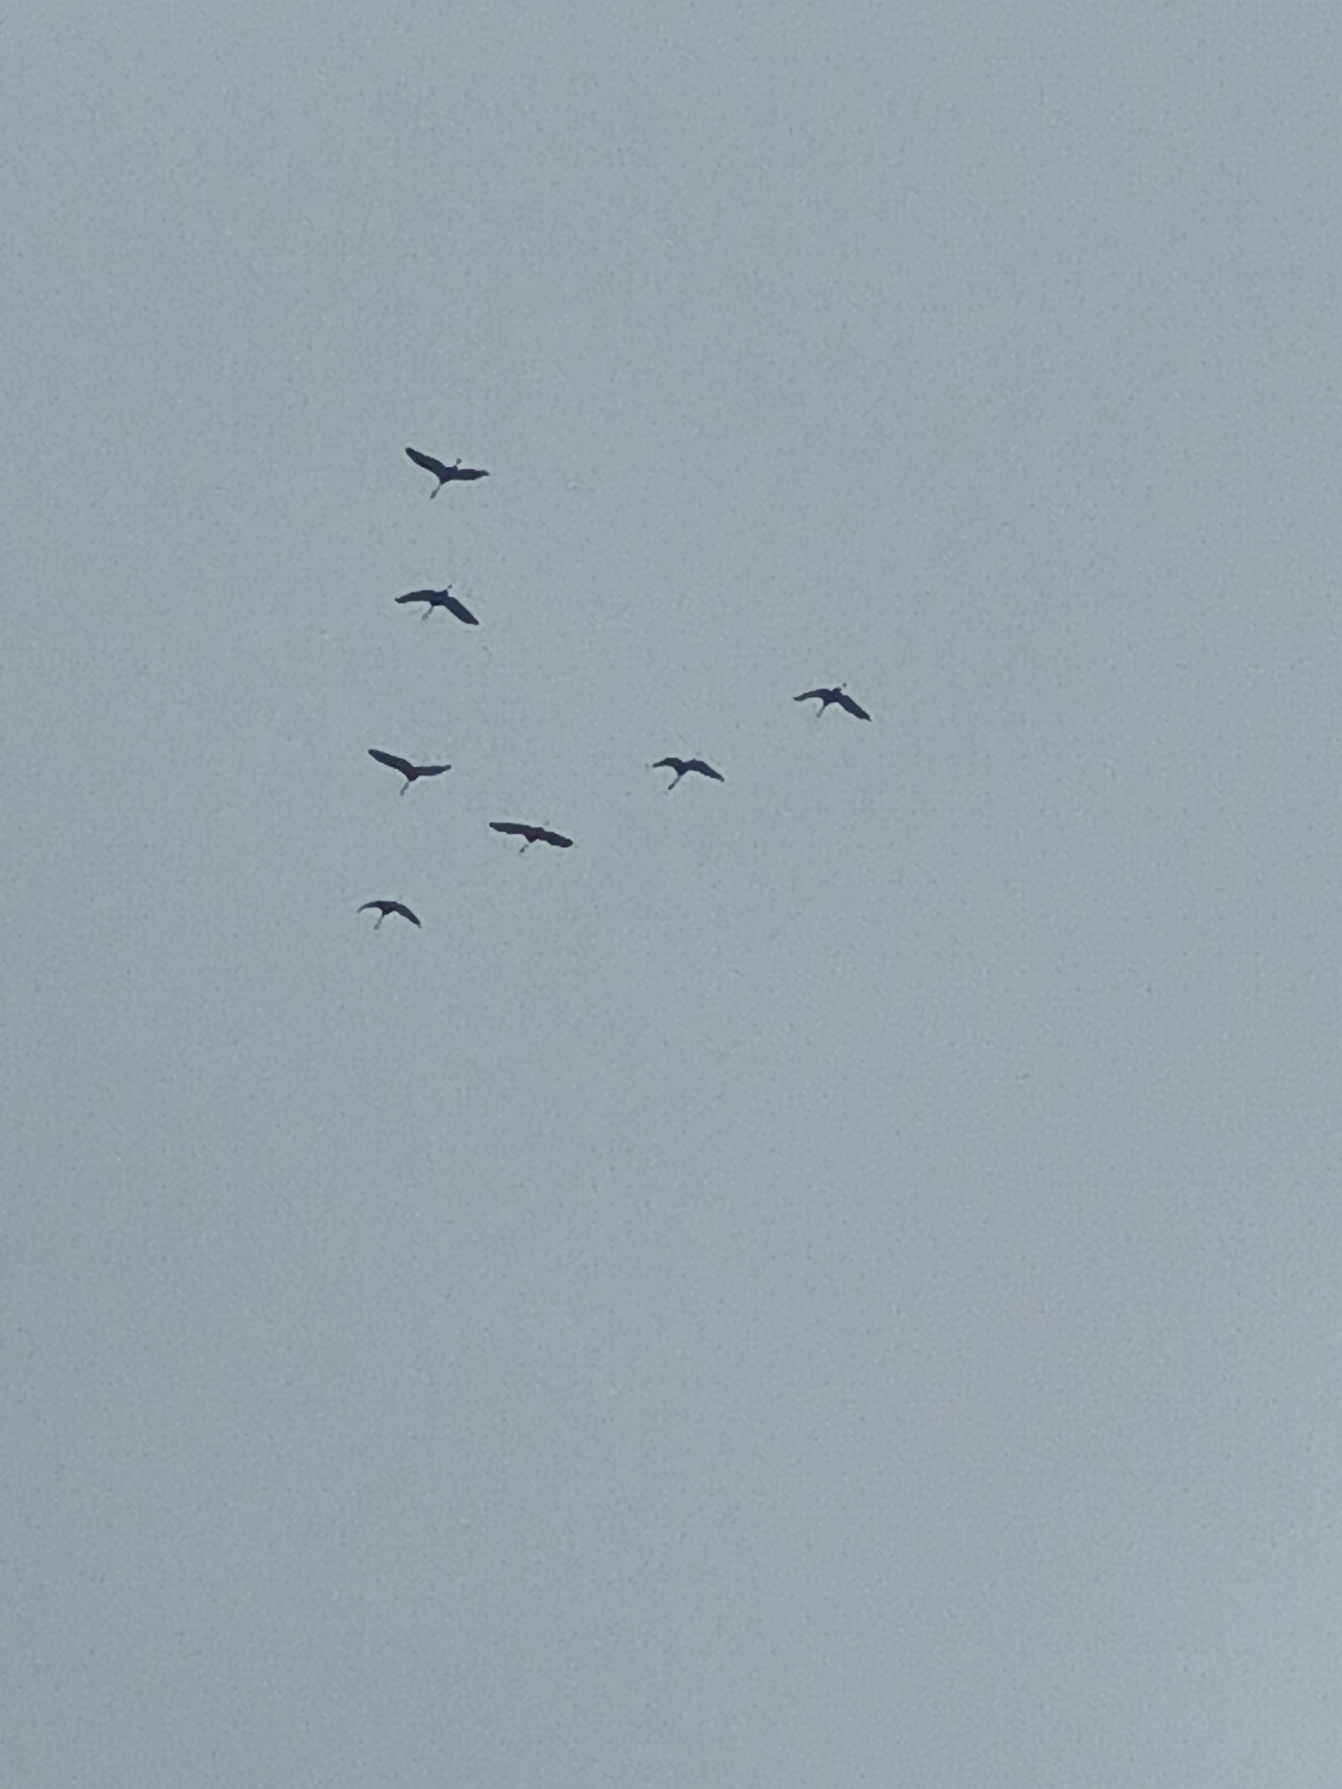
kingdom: Animalia
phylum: Chordata
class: Aves
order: Gruiformes
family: Gruidae
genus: Grus
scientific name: Grus grus
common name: Trane
